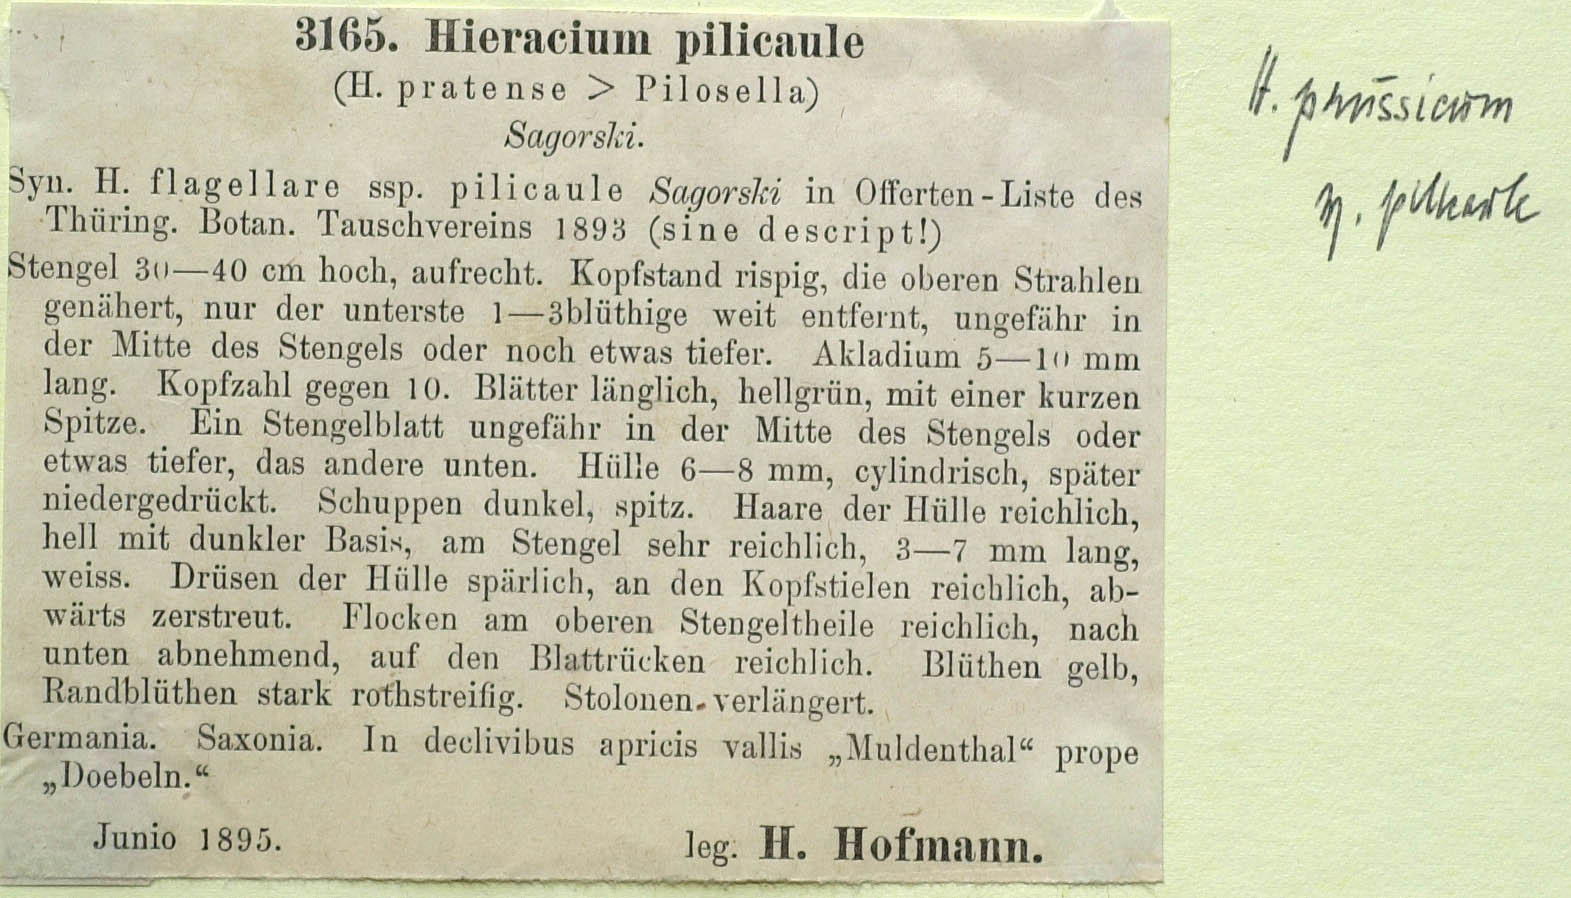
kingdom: Plantae
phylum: Tracheophyta
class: Magnoliopsida
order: Asterales
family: Asteraceae
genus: Pilosella
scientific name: Pilosella prussica
